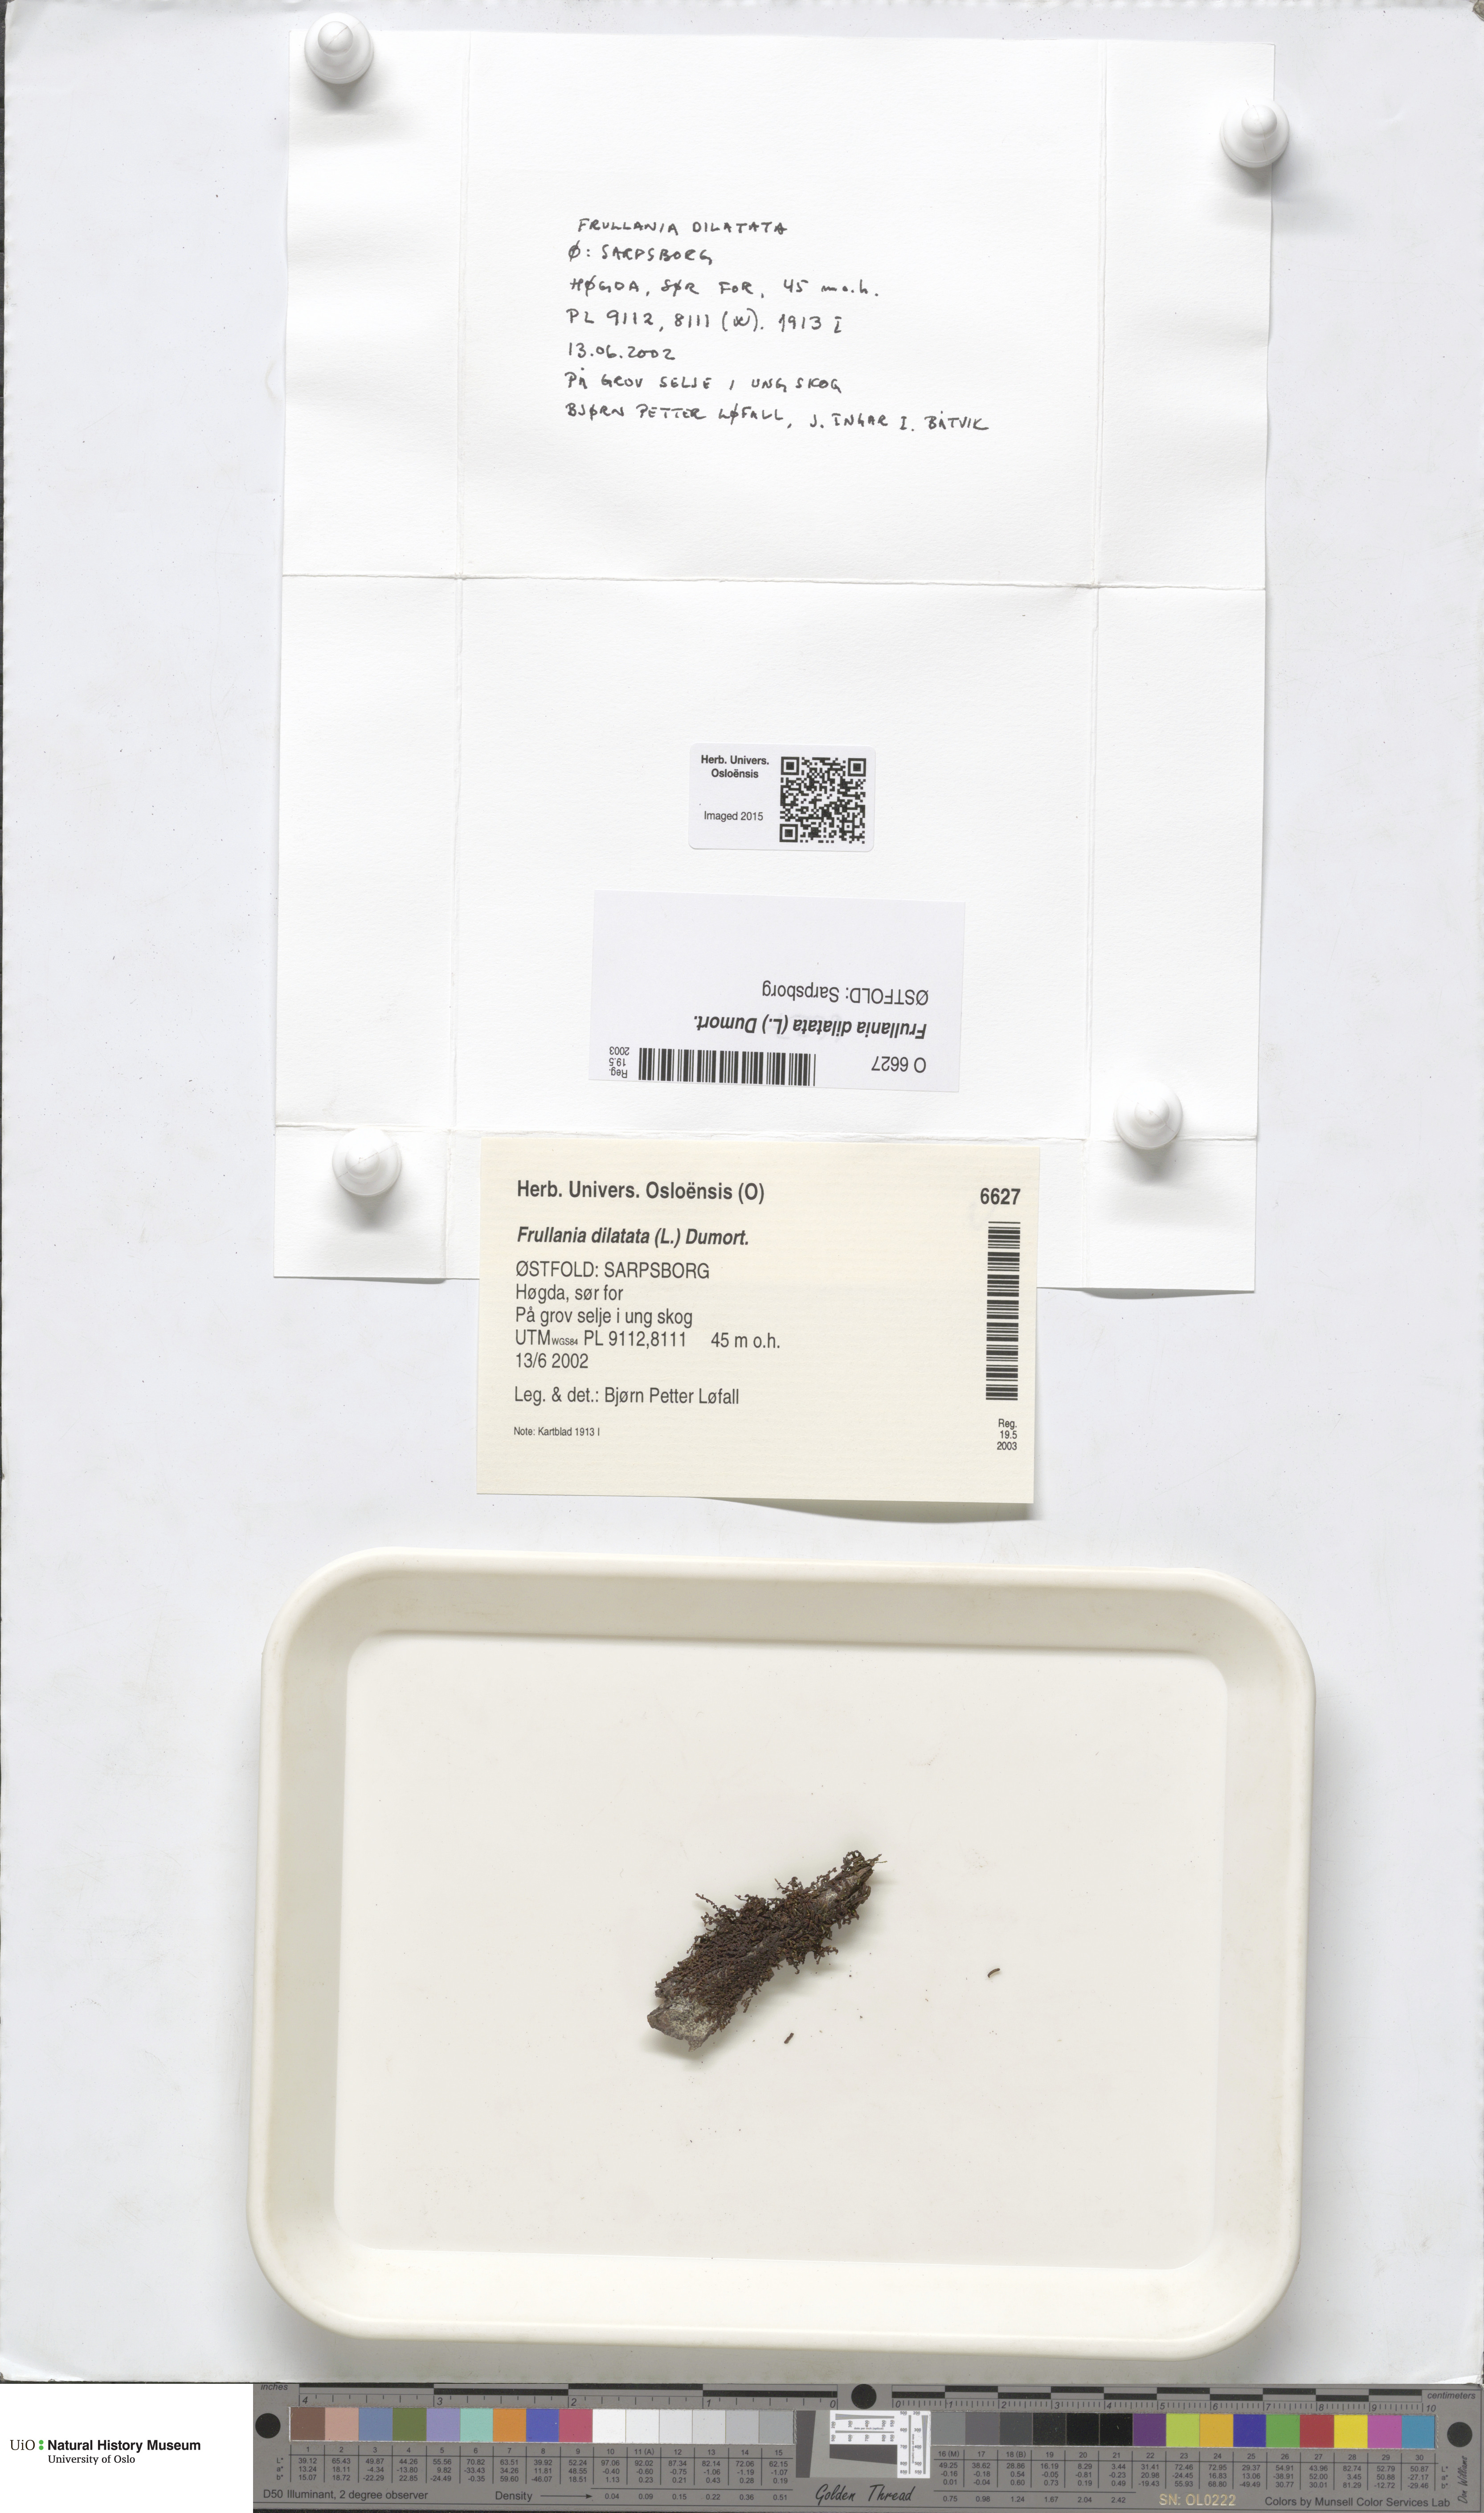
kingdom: Plantae
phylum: Marchantiophyta
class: Jungermanniopsida
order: Porellales
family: Frullaniaceae
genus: Frullania
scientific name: Frullania dilatata
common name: Dilated scalewort
